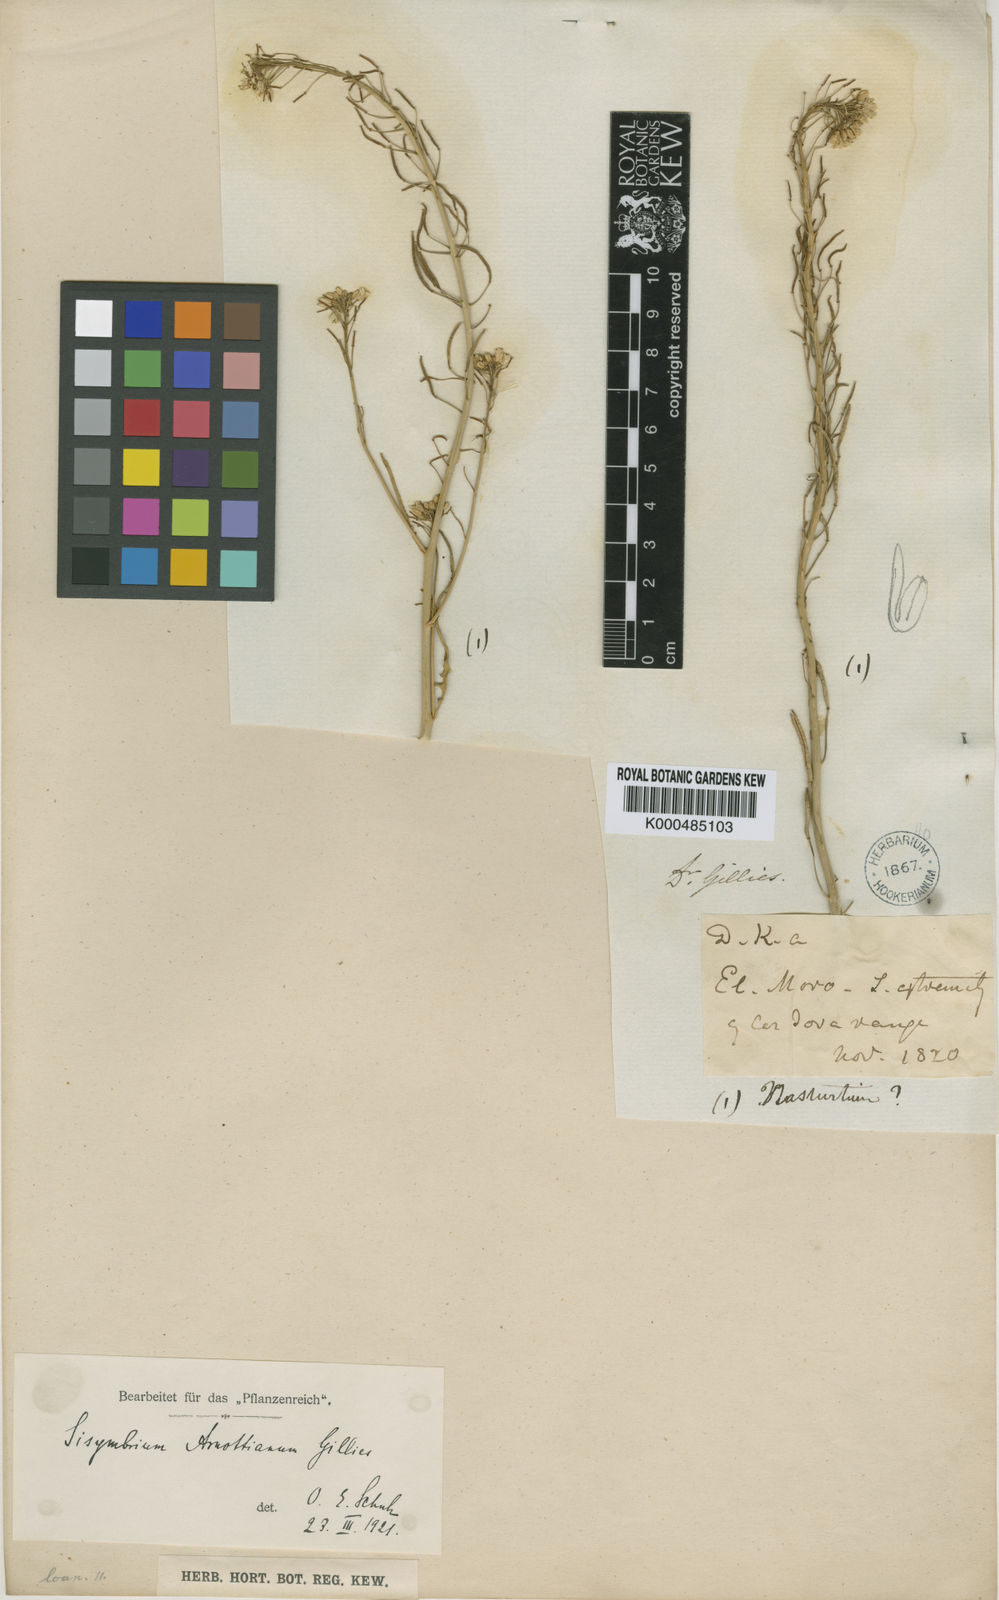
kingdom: Plantae
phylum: Tracheophyta
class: Magnoliopsida
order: Brassicales
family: Brassicaceae
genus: Polypsecadium
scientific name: Polypsecadium arnottianum
